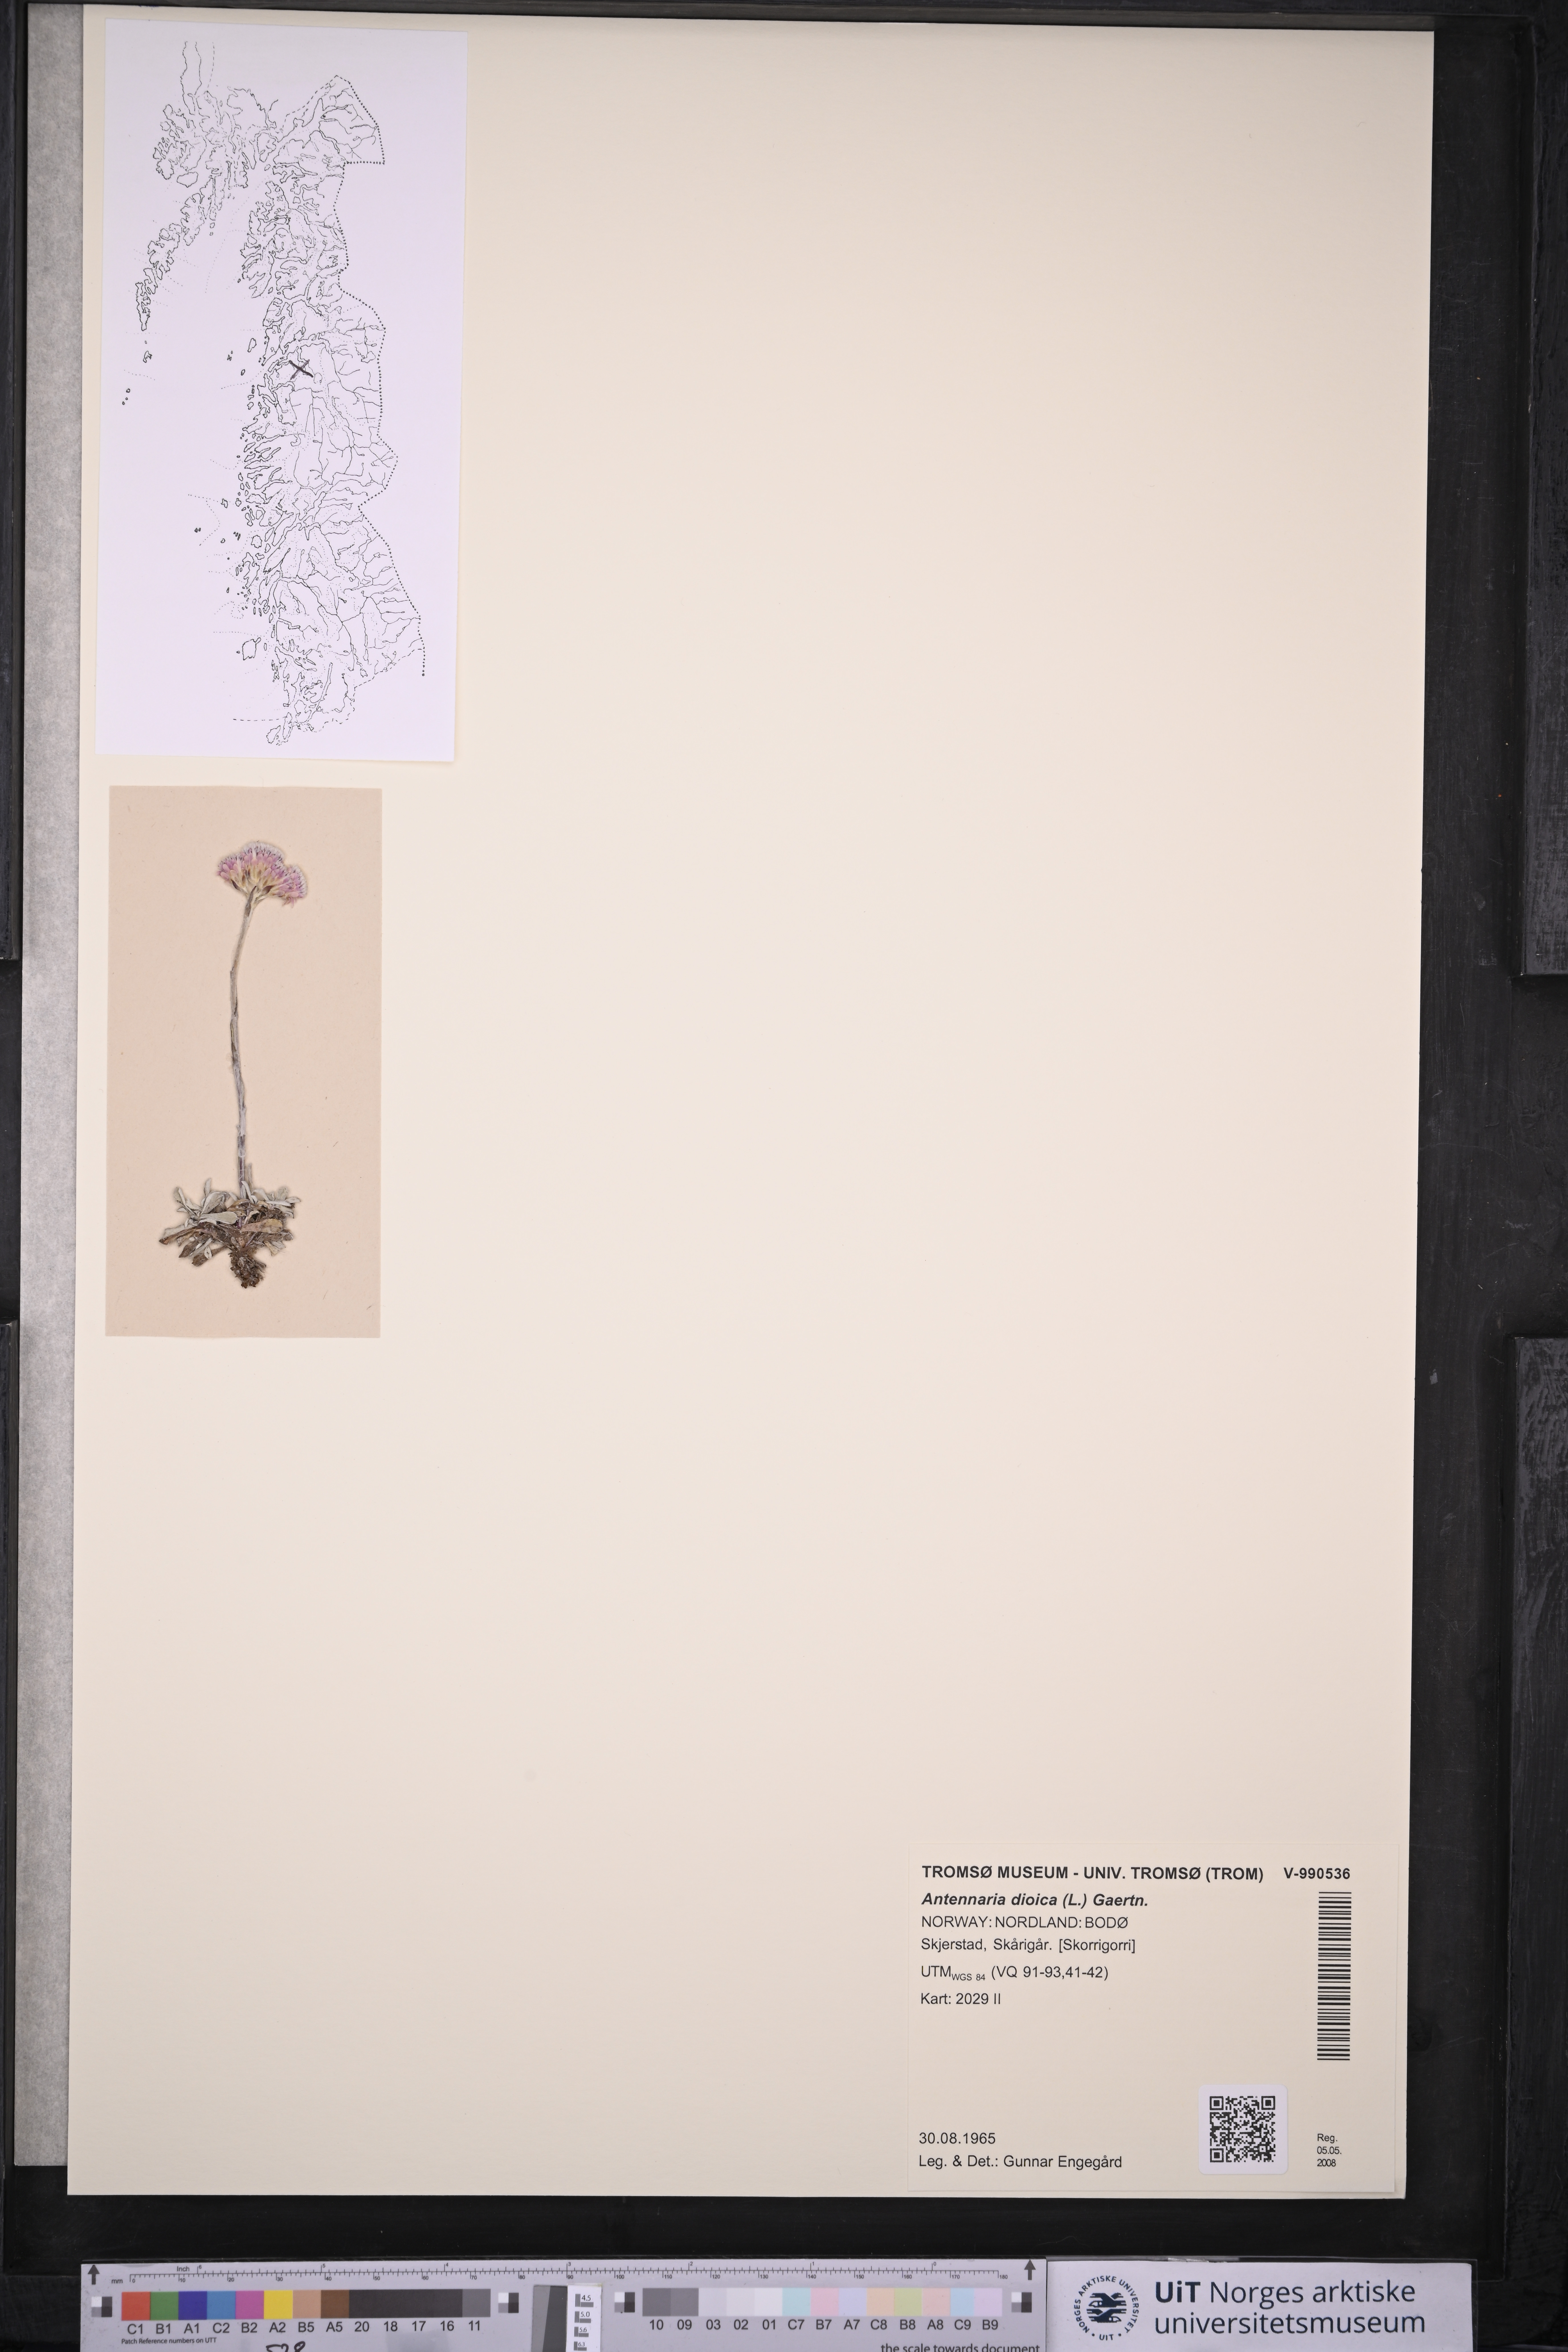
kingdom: Plantae
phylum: Tracheophyta
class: Magnoliopsida
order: Asterales
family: Asteraceae
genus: Antennaria
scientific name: Antennaria dioica
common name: Mountain everlasting
